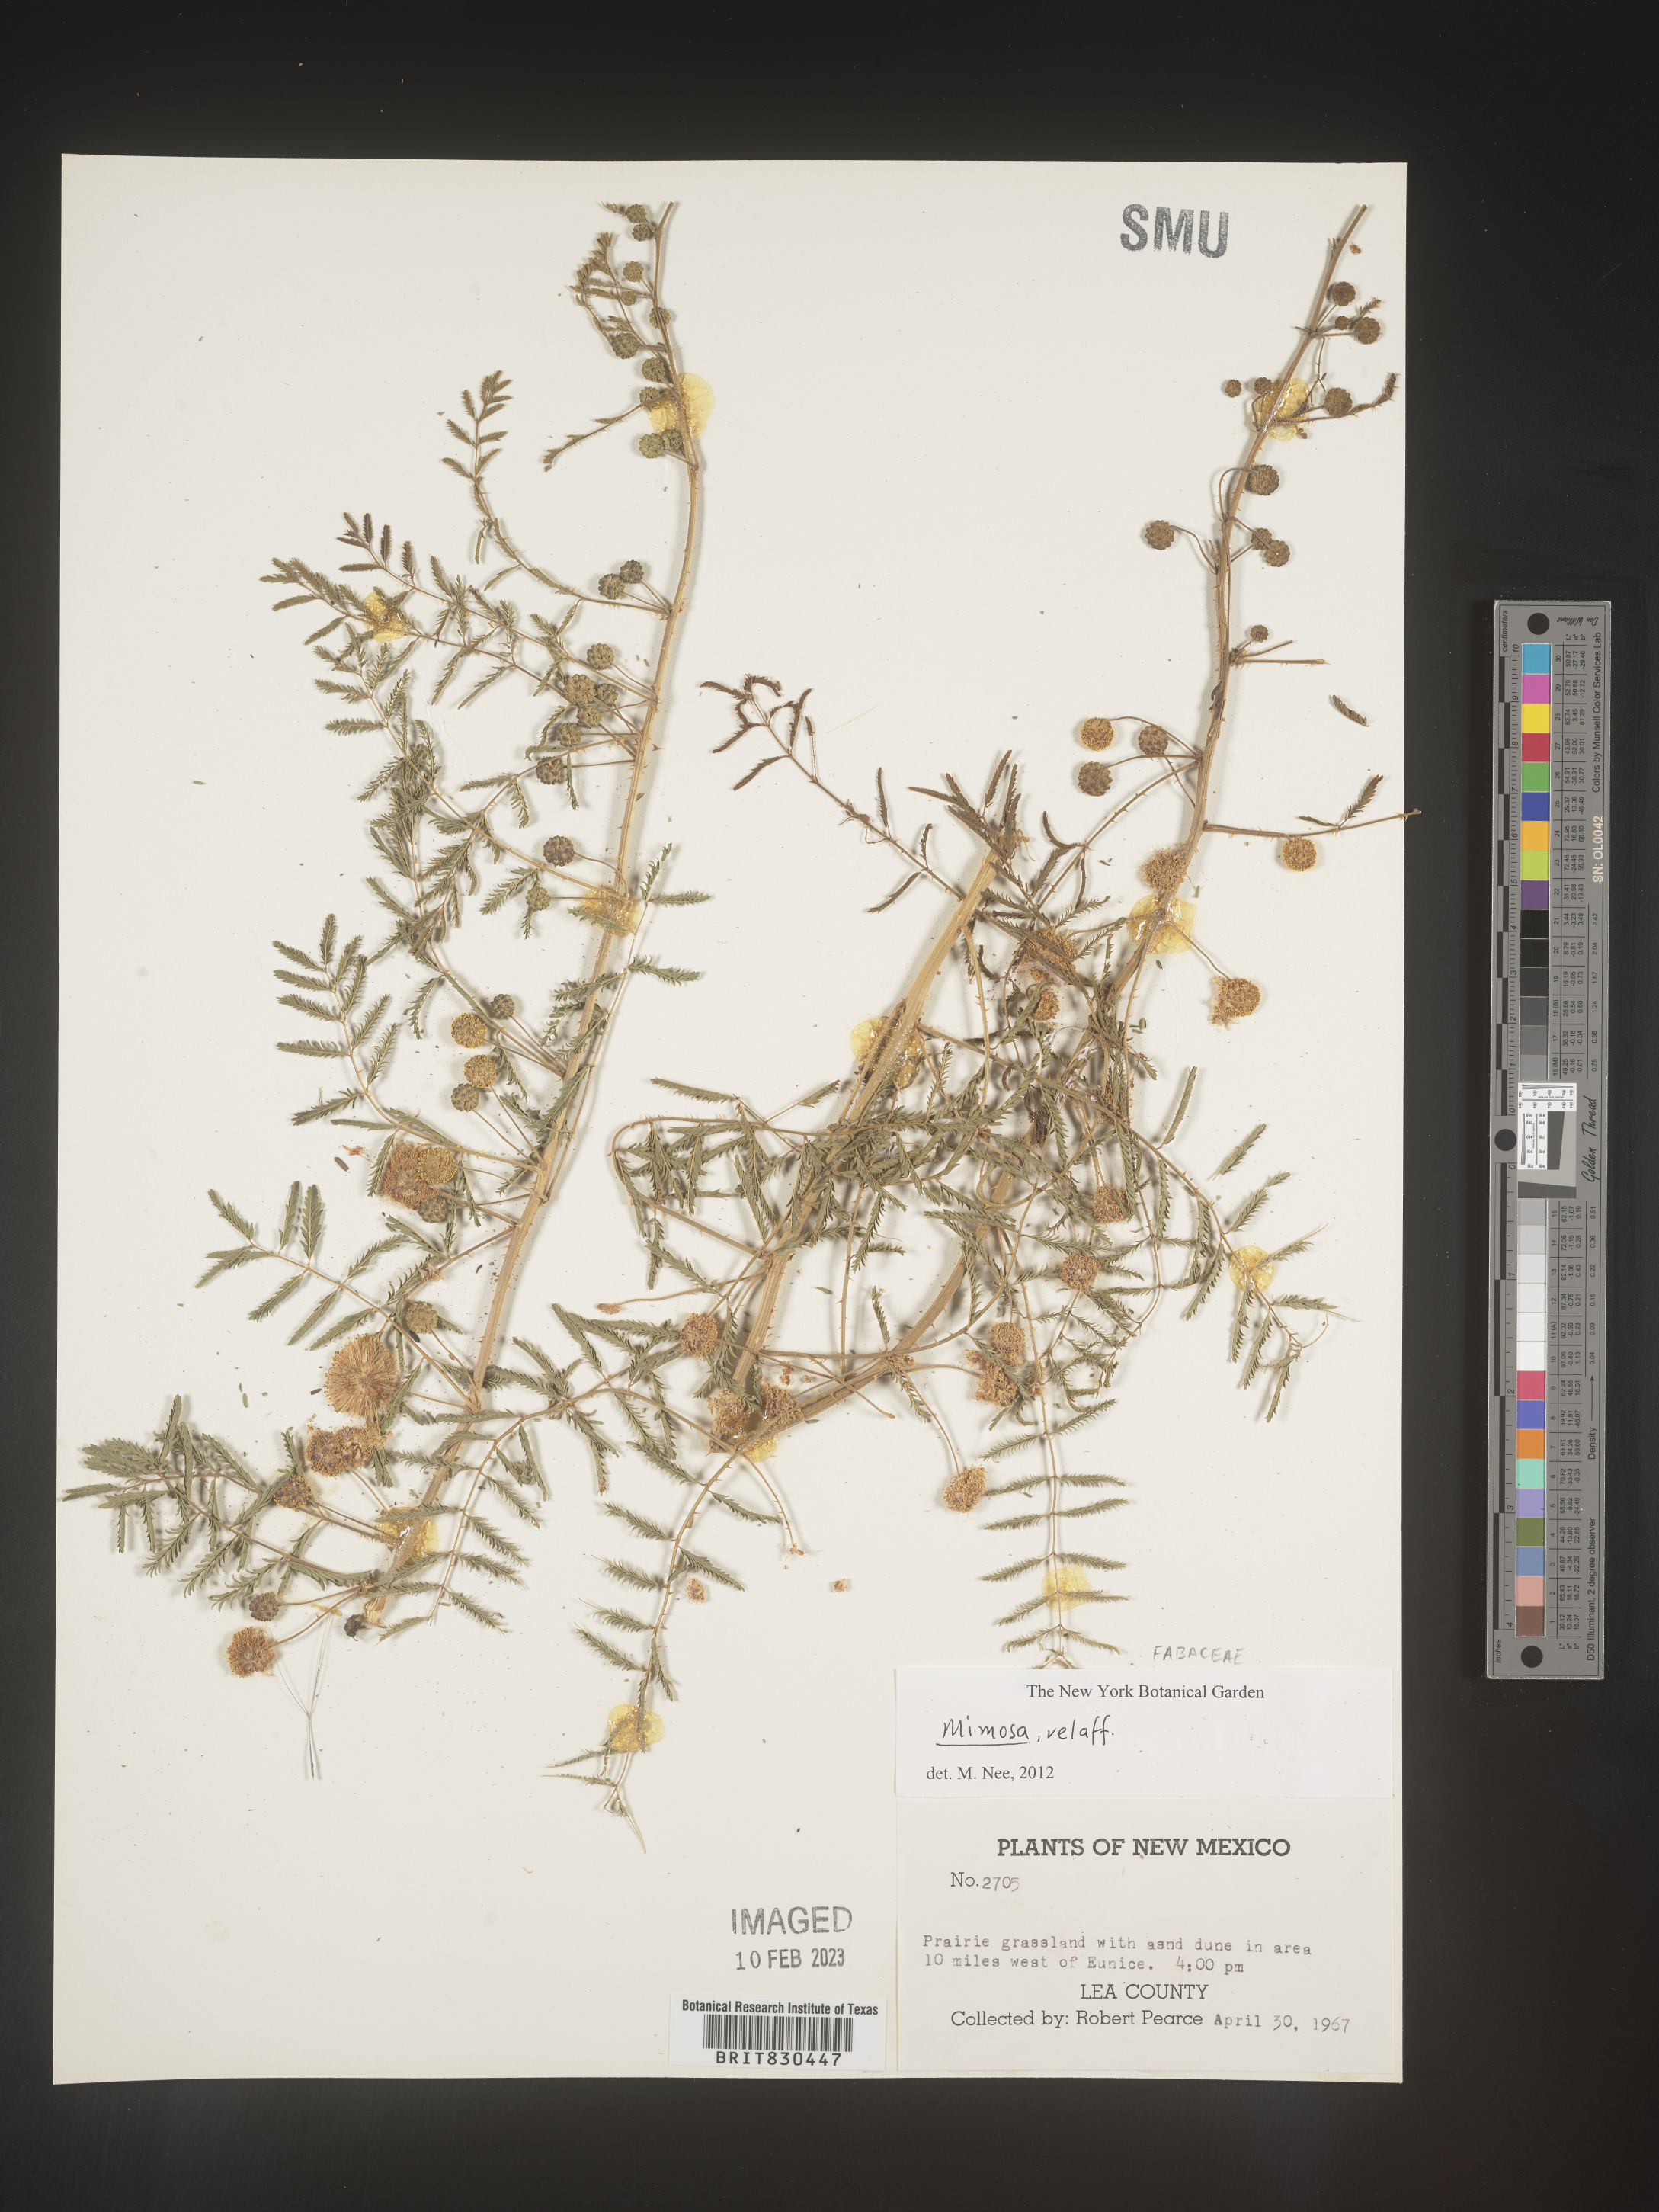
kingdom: Plantae
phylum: Tracheophyta
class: Magnoliopsida
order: Fabales
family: Fabaceae
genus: Mimosa
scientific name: Mimosa
